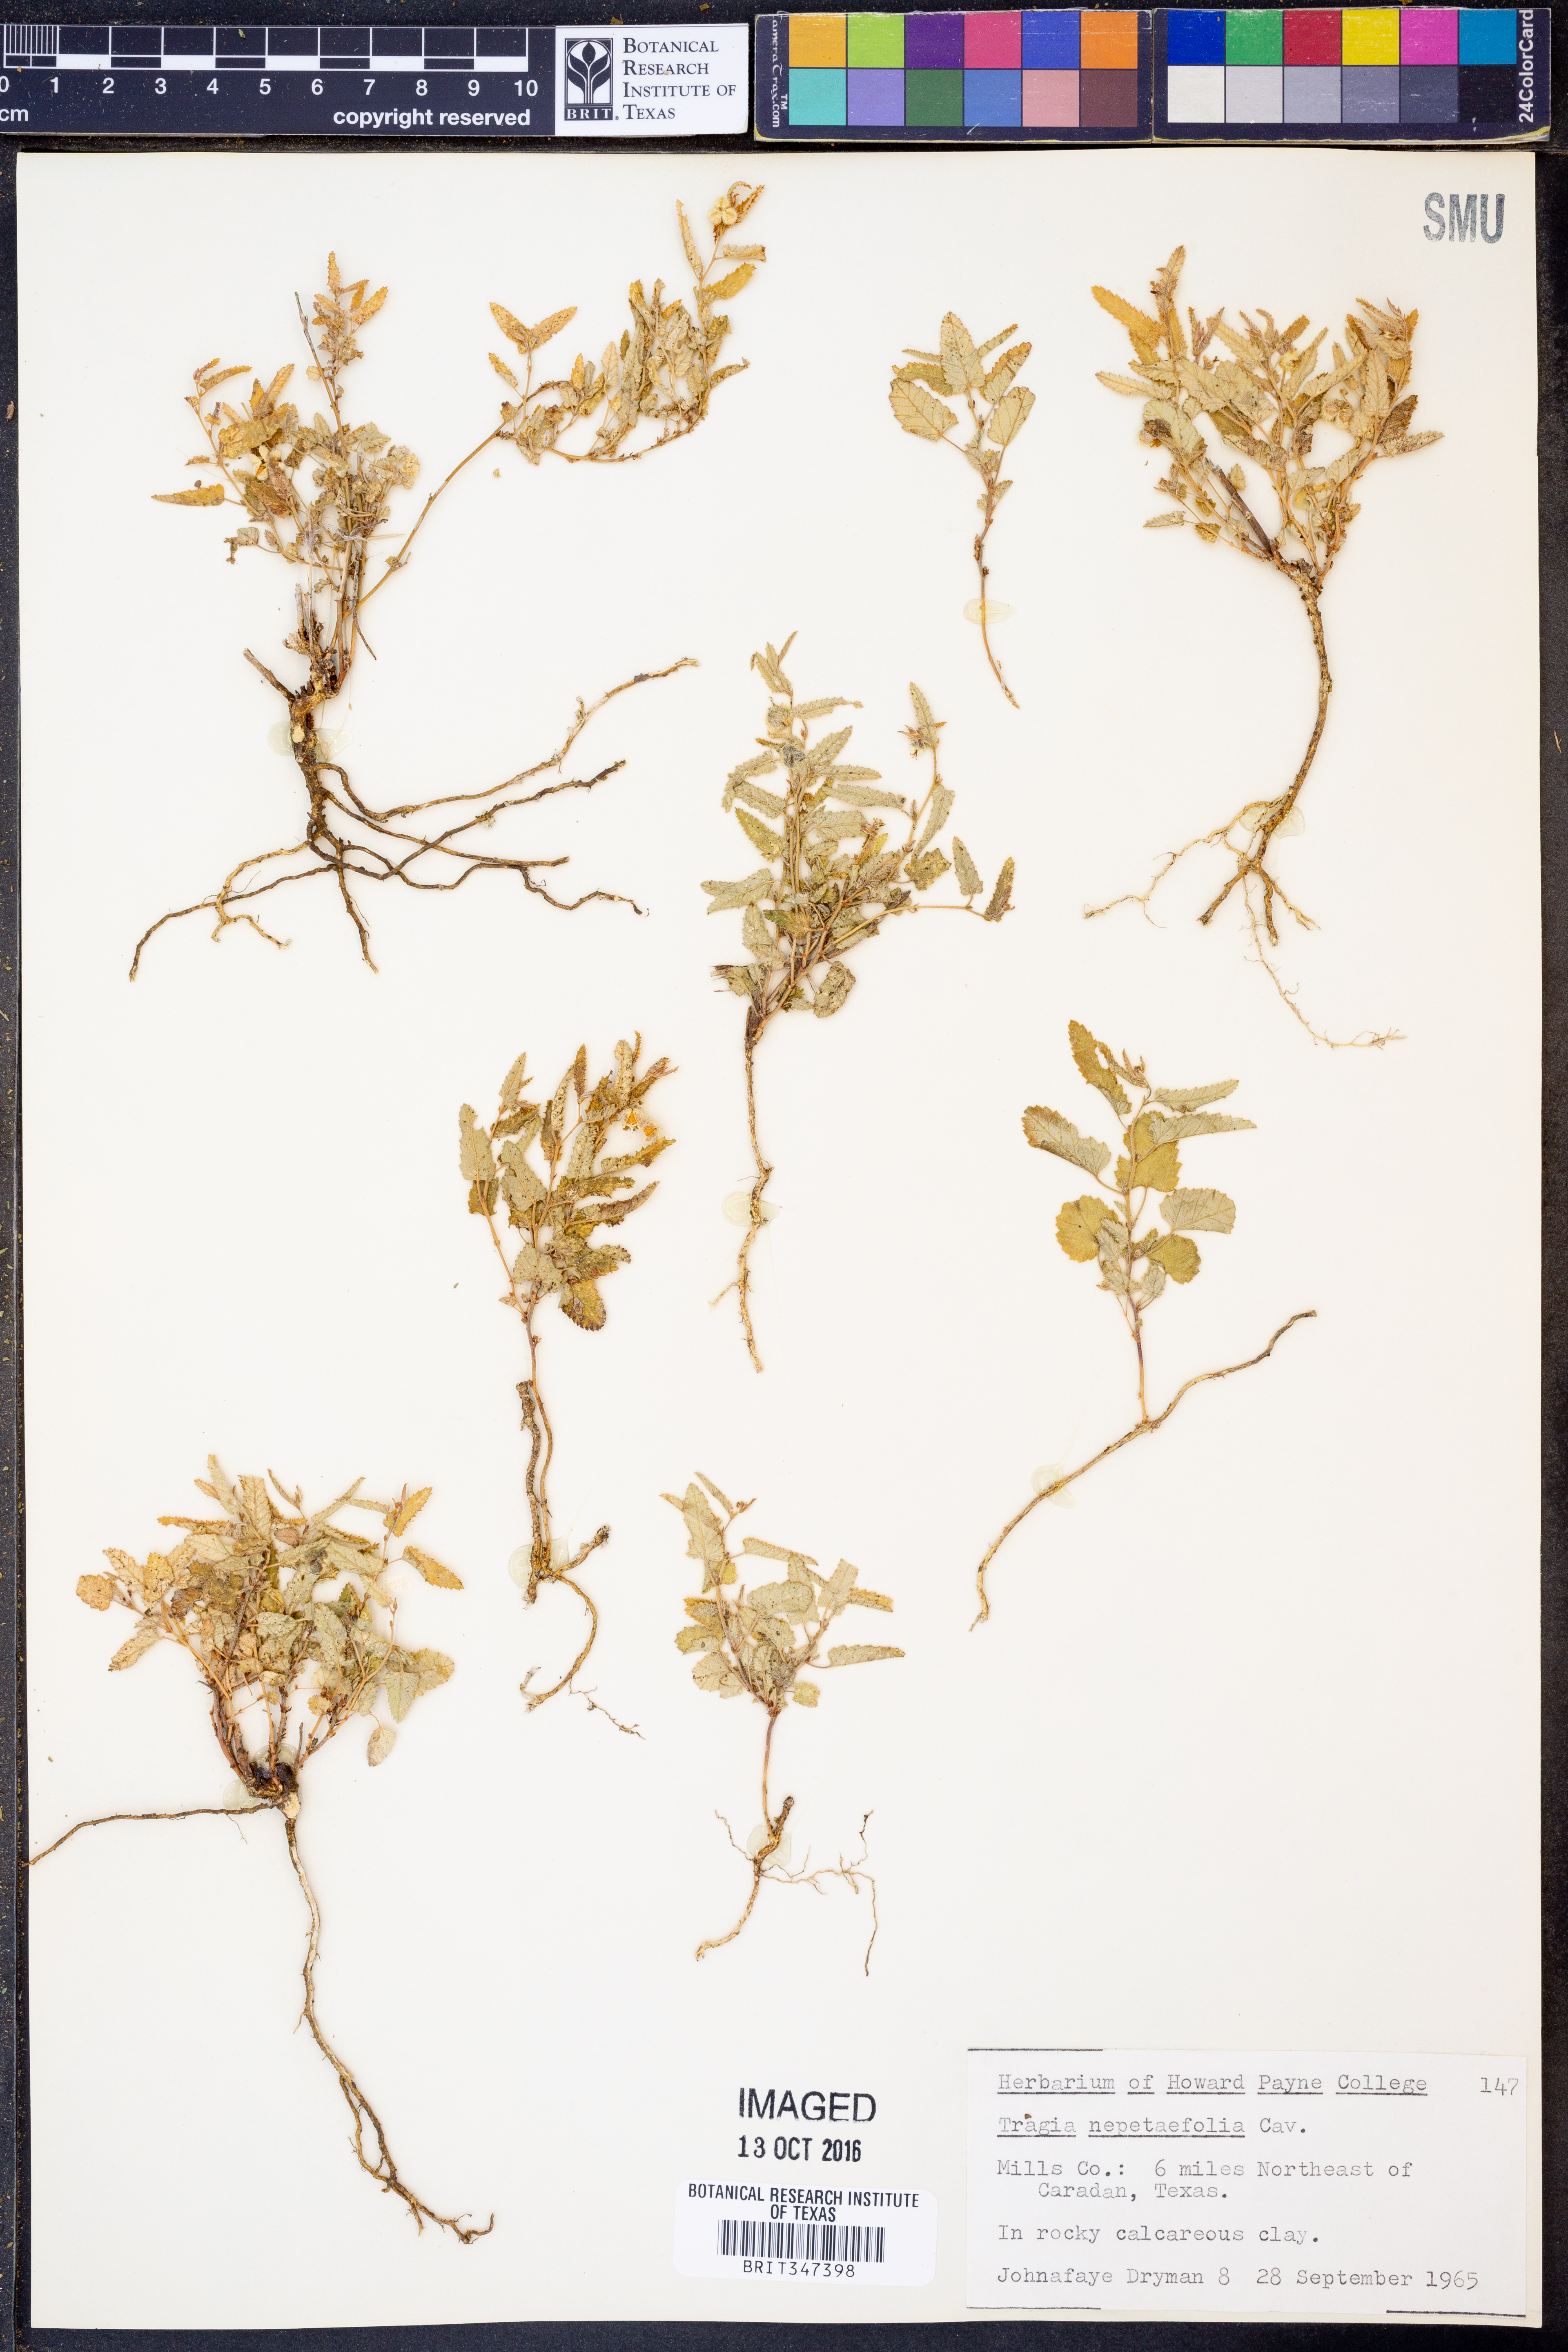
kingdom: Plantae
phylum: Tracheophyta
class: Magnoliopsida
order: Malpighiales
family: Euphorbiaceae
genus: Tragia
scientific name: Tragia bahiensis
